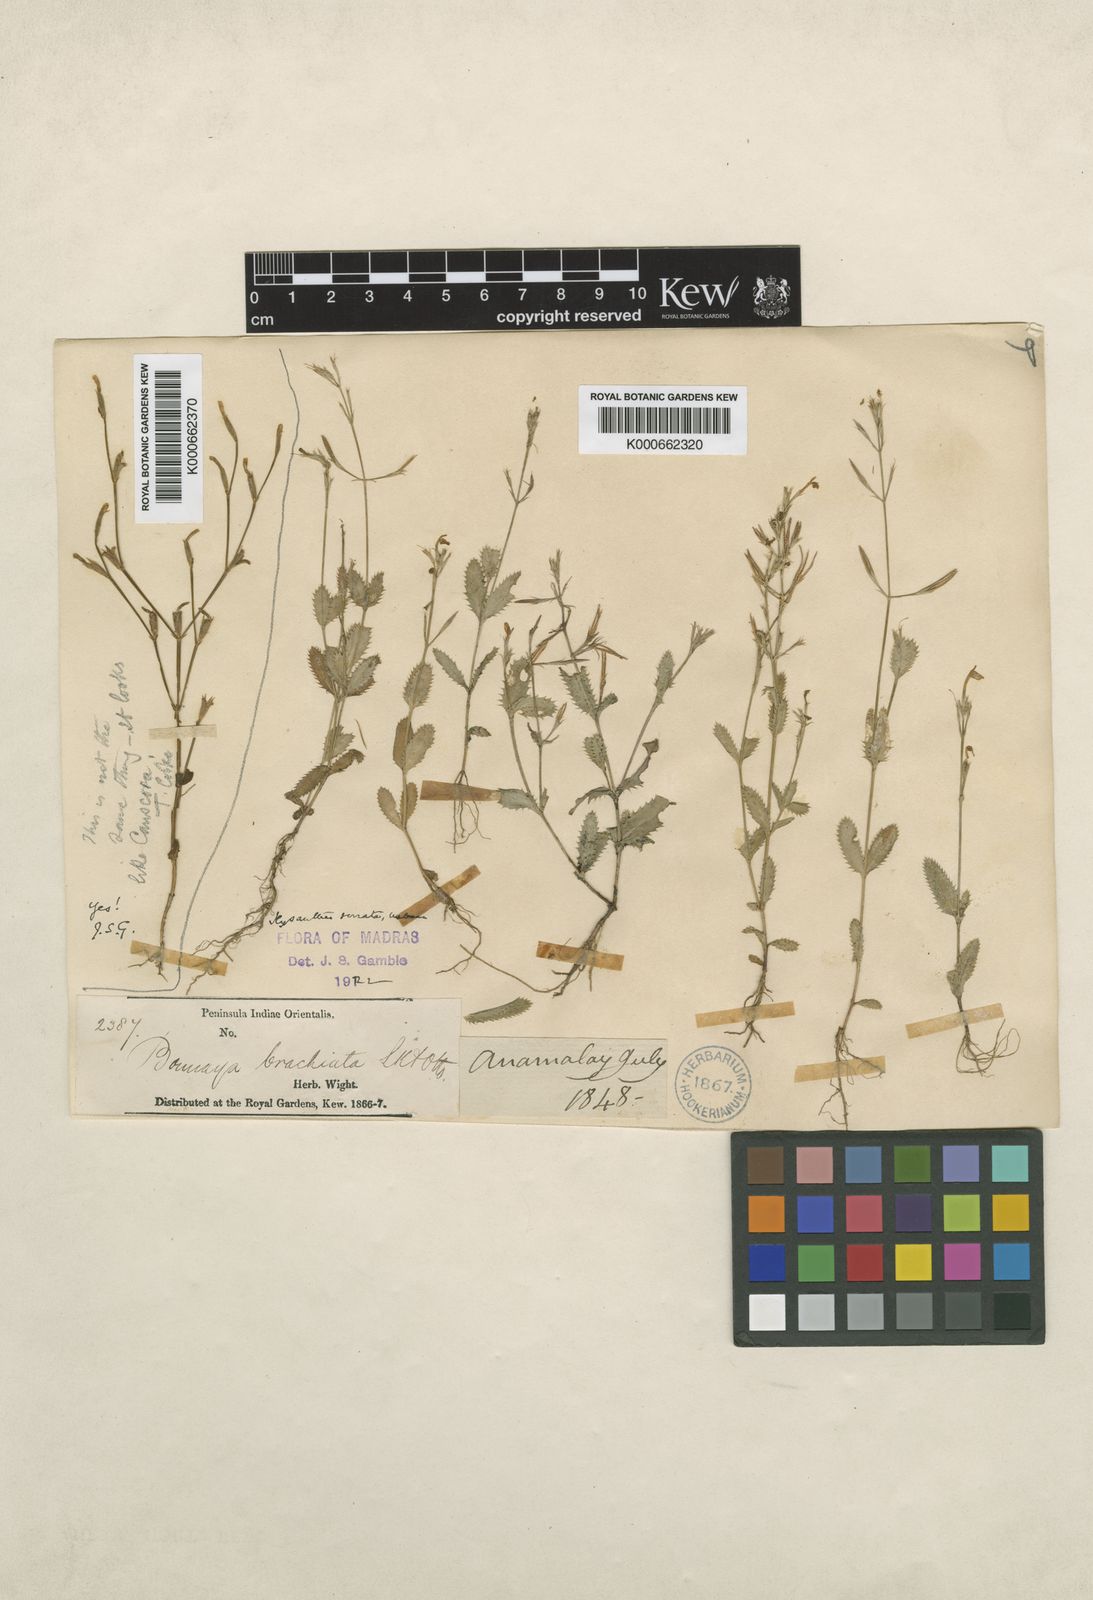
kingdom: Plantae
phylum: Tracheophyta
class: Magnoliopsida
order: Gentianales
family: Gentianaceae
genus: Canscora
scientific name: Canscora
